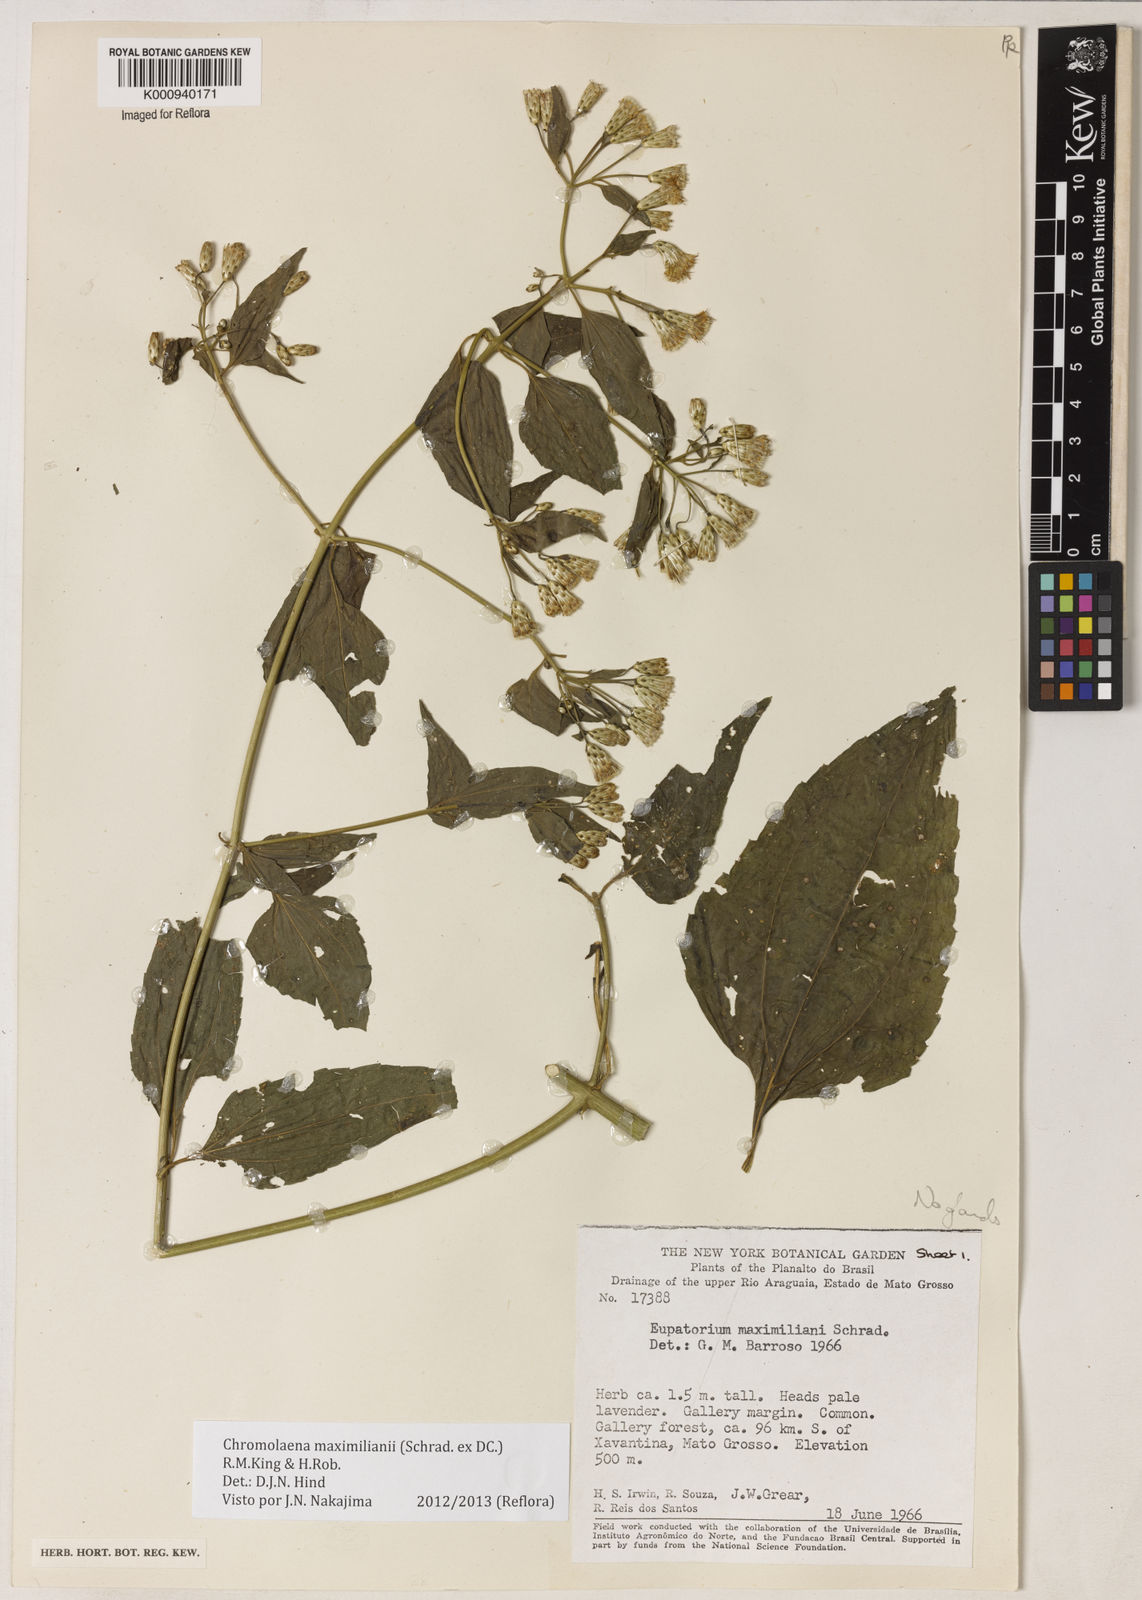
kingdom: Plantae
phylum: Tracheophyta
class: Magnoliopsida
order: Asterales
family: Asteraceae
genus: Chromolaena
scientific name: Chromolaena maximiliani
